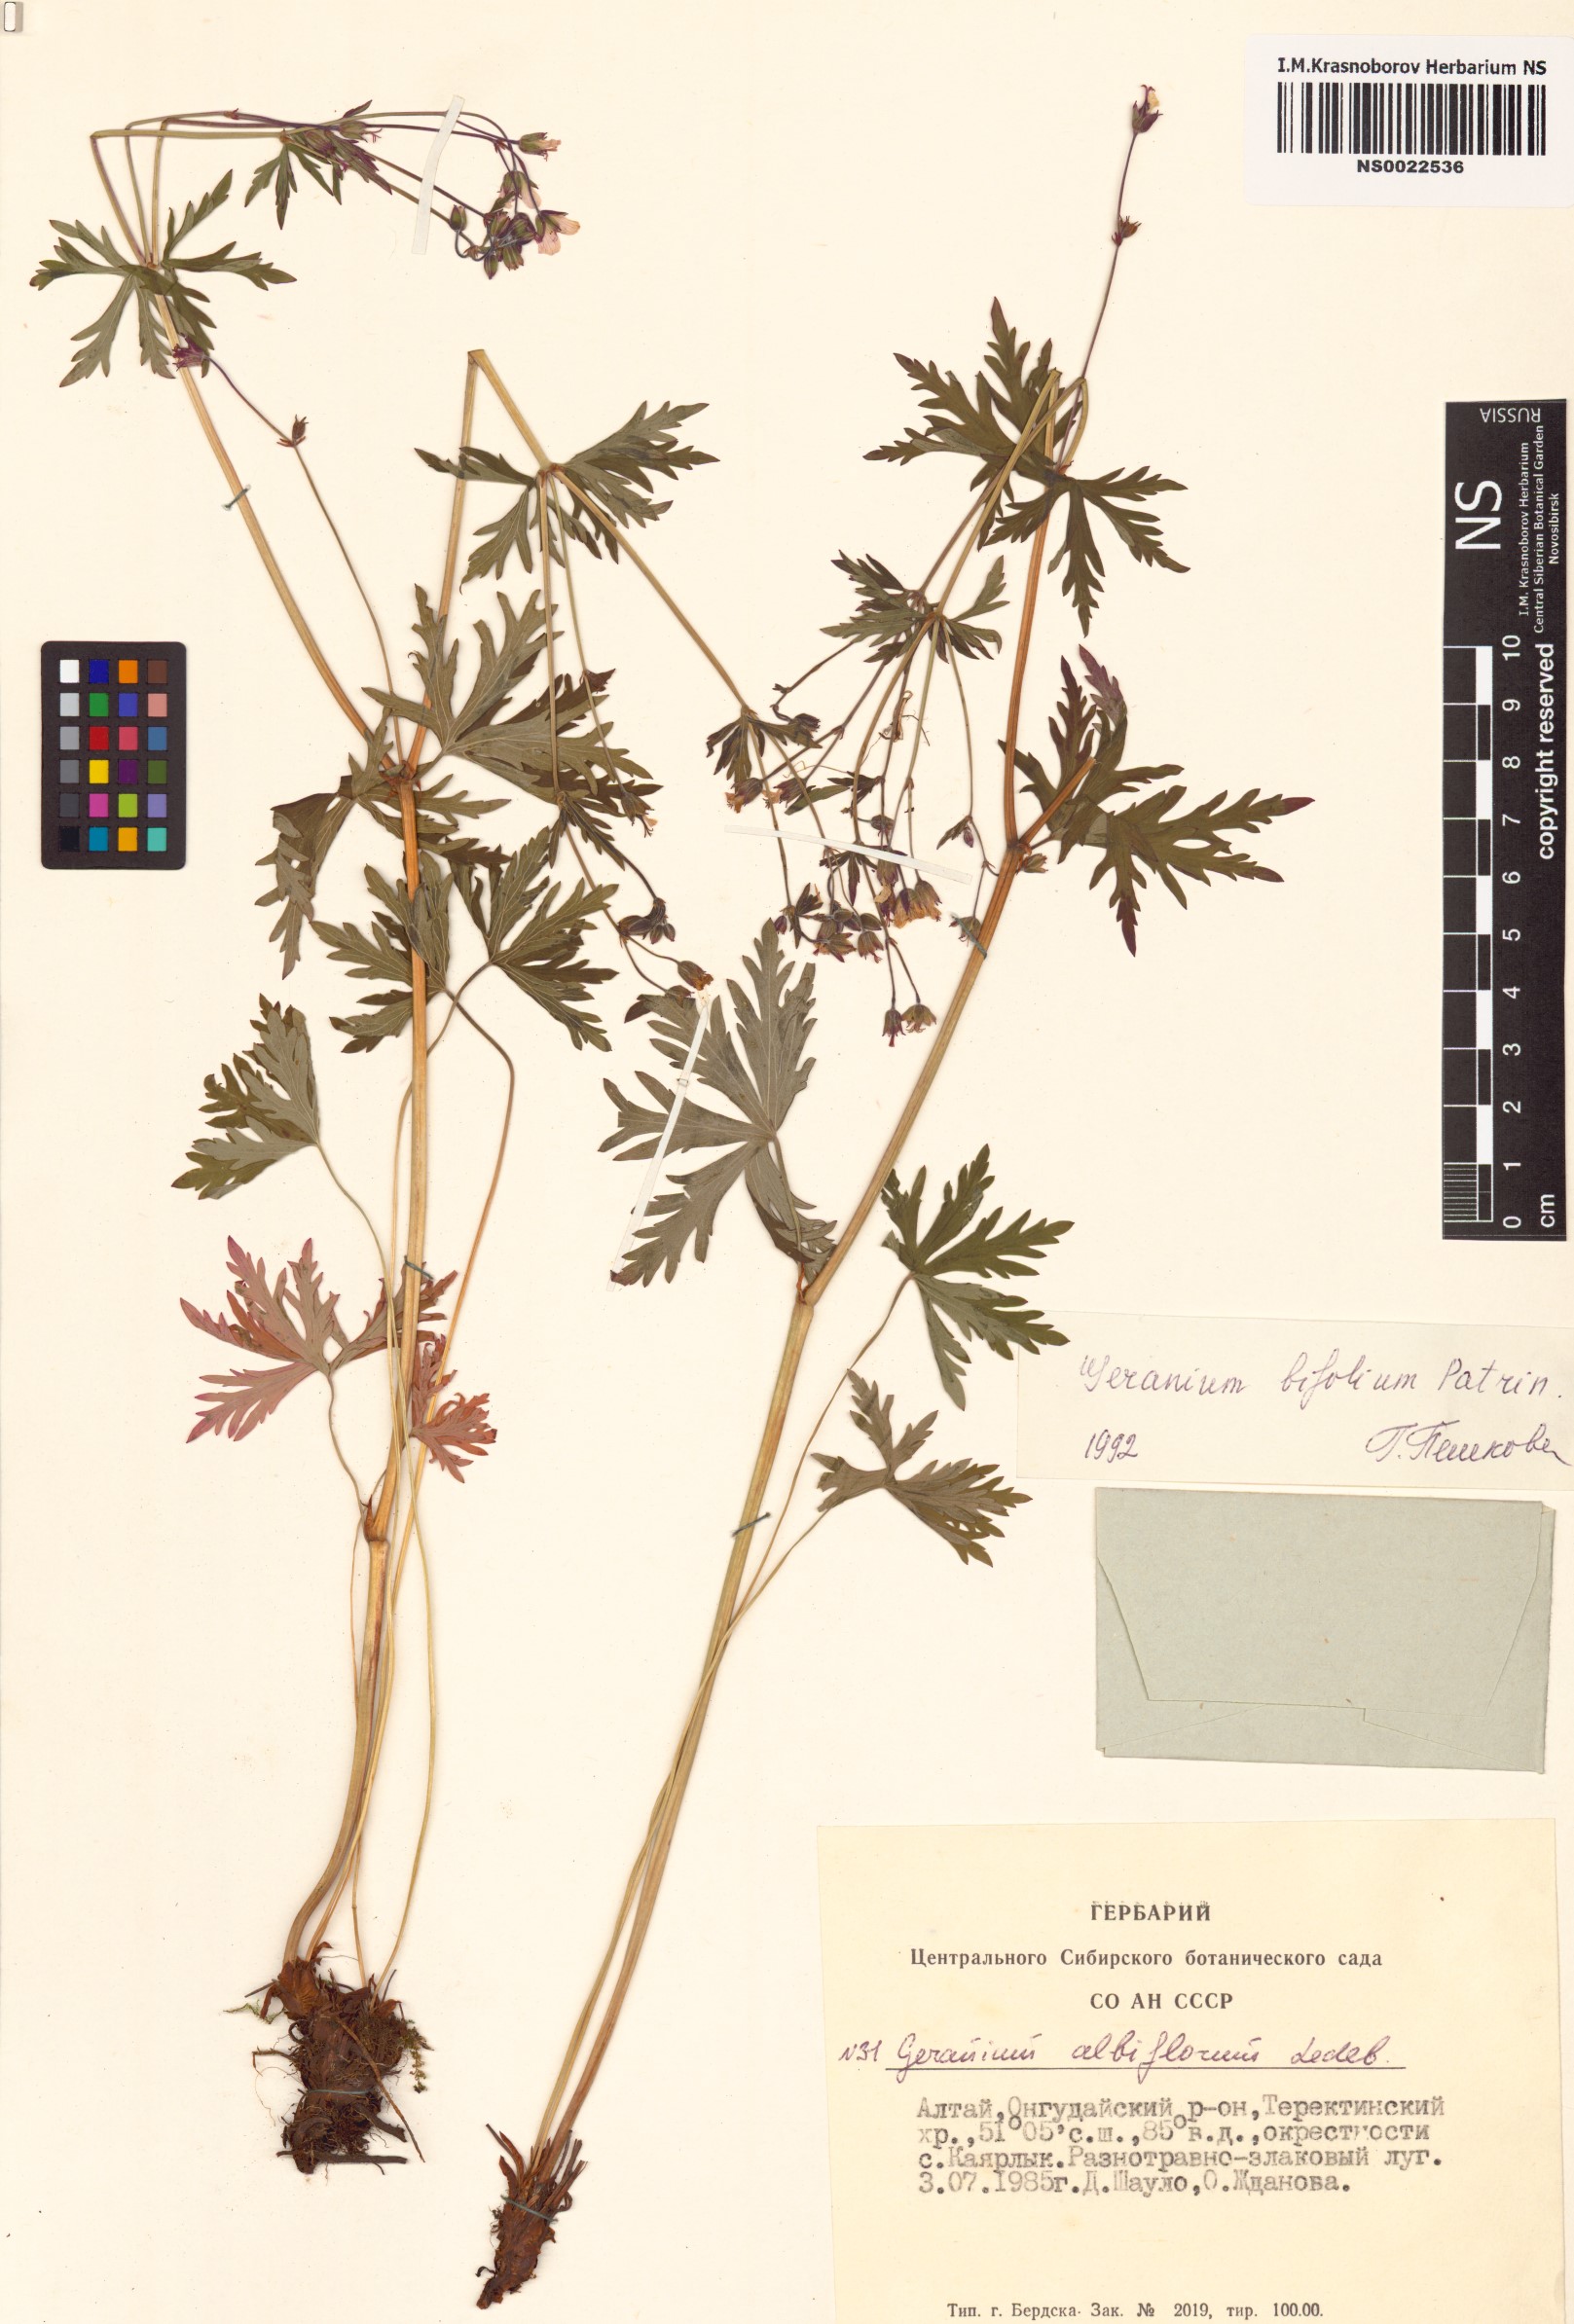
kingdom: Plantae
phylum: Tracheophyta
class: Magnoliopsida
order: Geraniales
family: Geraniaceae
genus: Geranium
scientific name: Geranium pseudosibiricum
